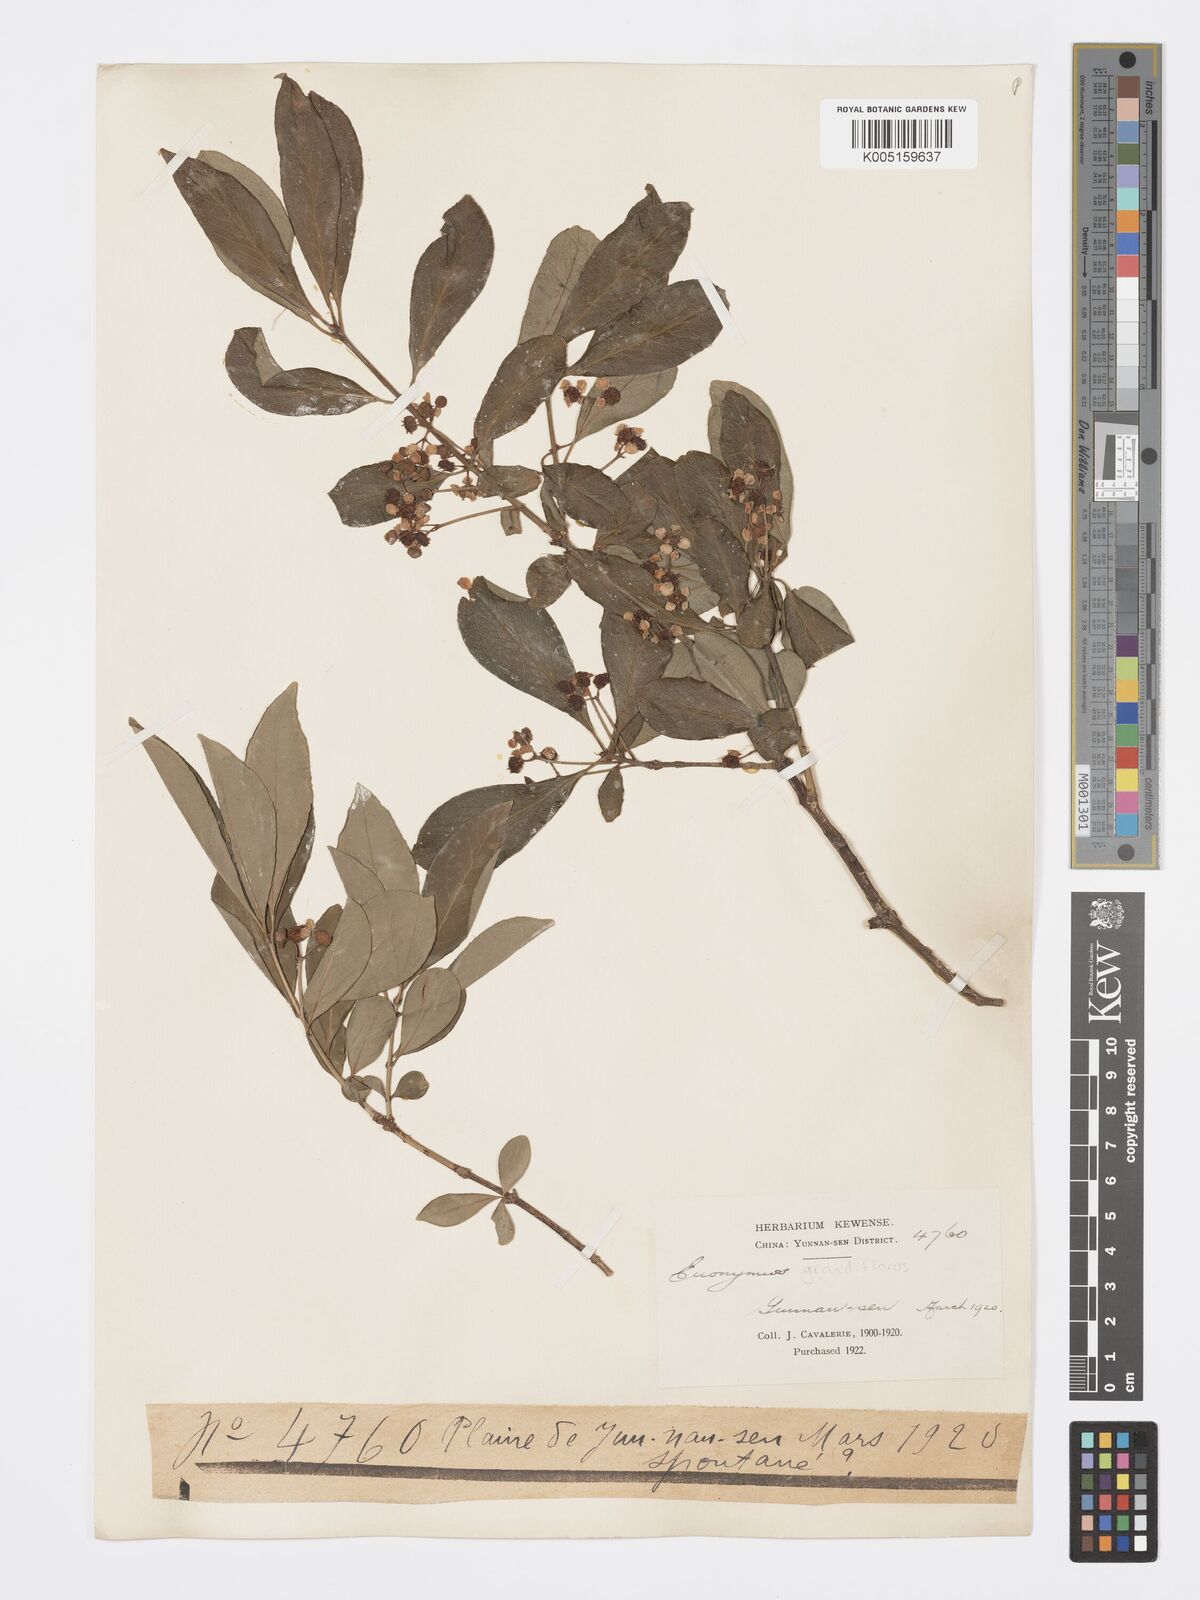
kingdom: Plantae
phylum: Tracheophyta
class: Magnoliopsida
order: Celastrales
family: Celastraceae
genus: Euonymus
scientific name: Euonymus grandiflorus
